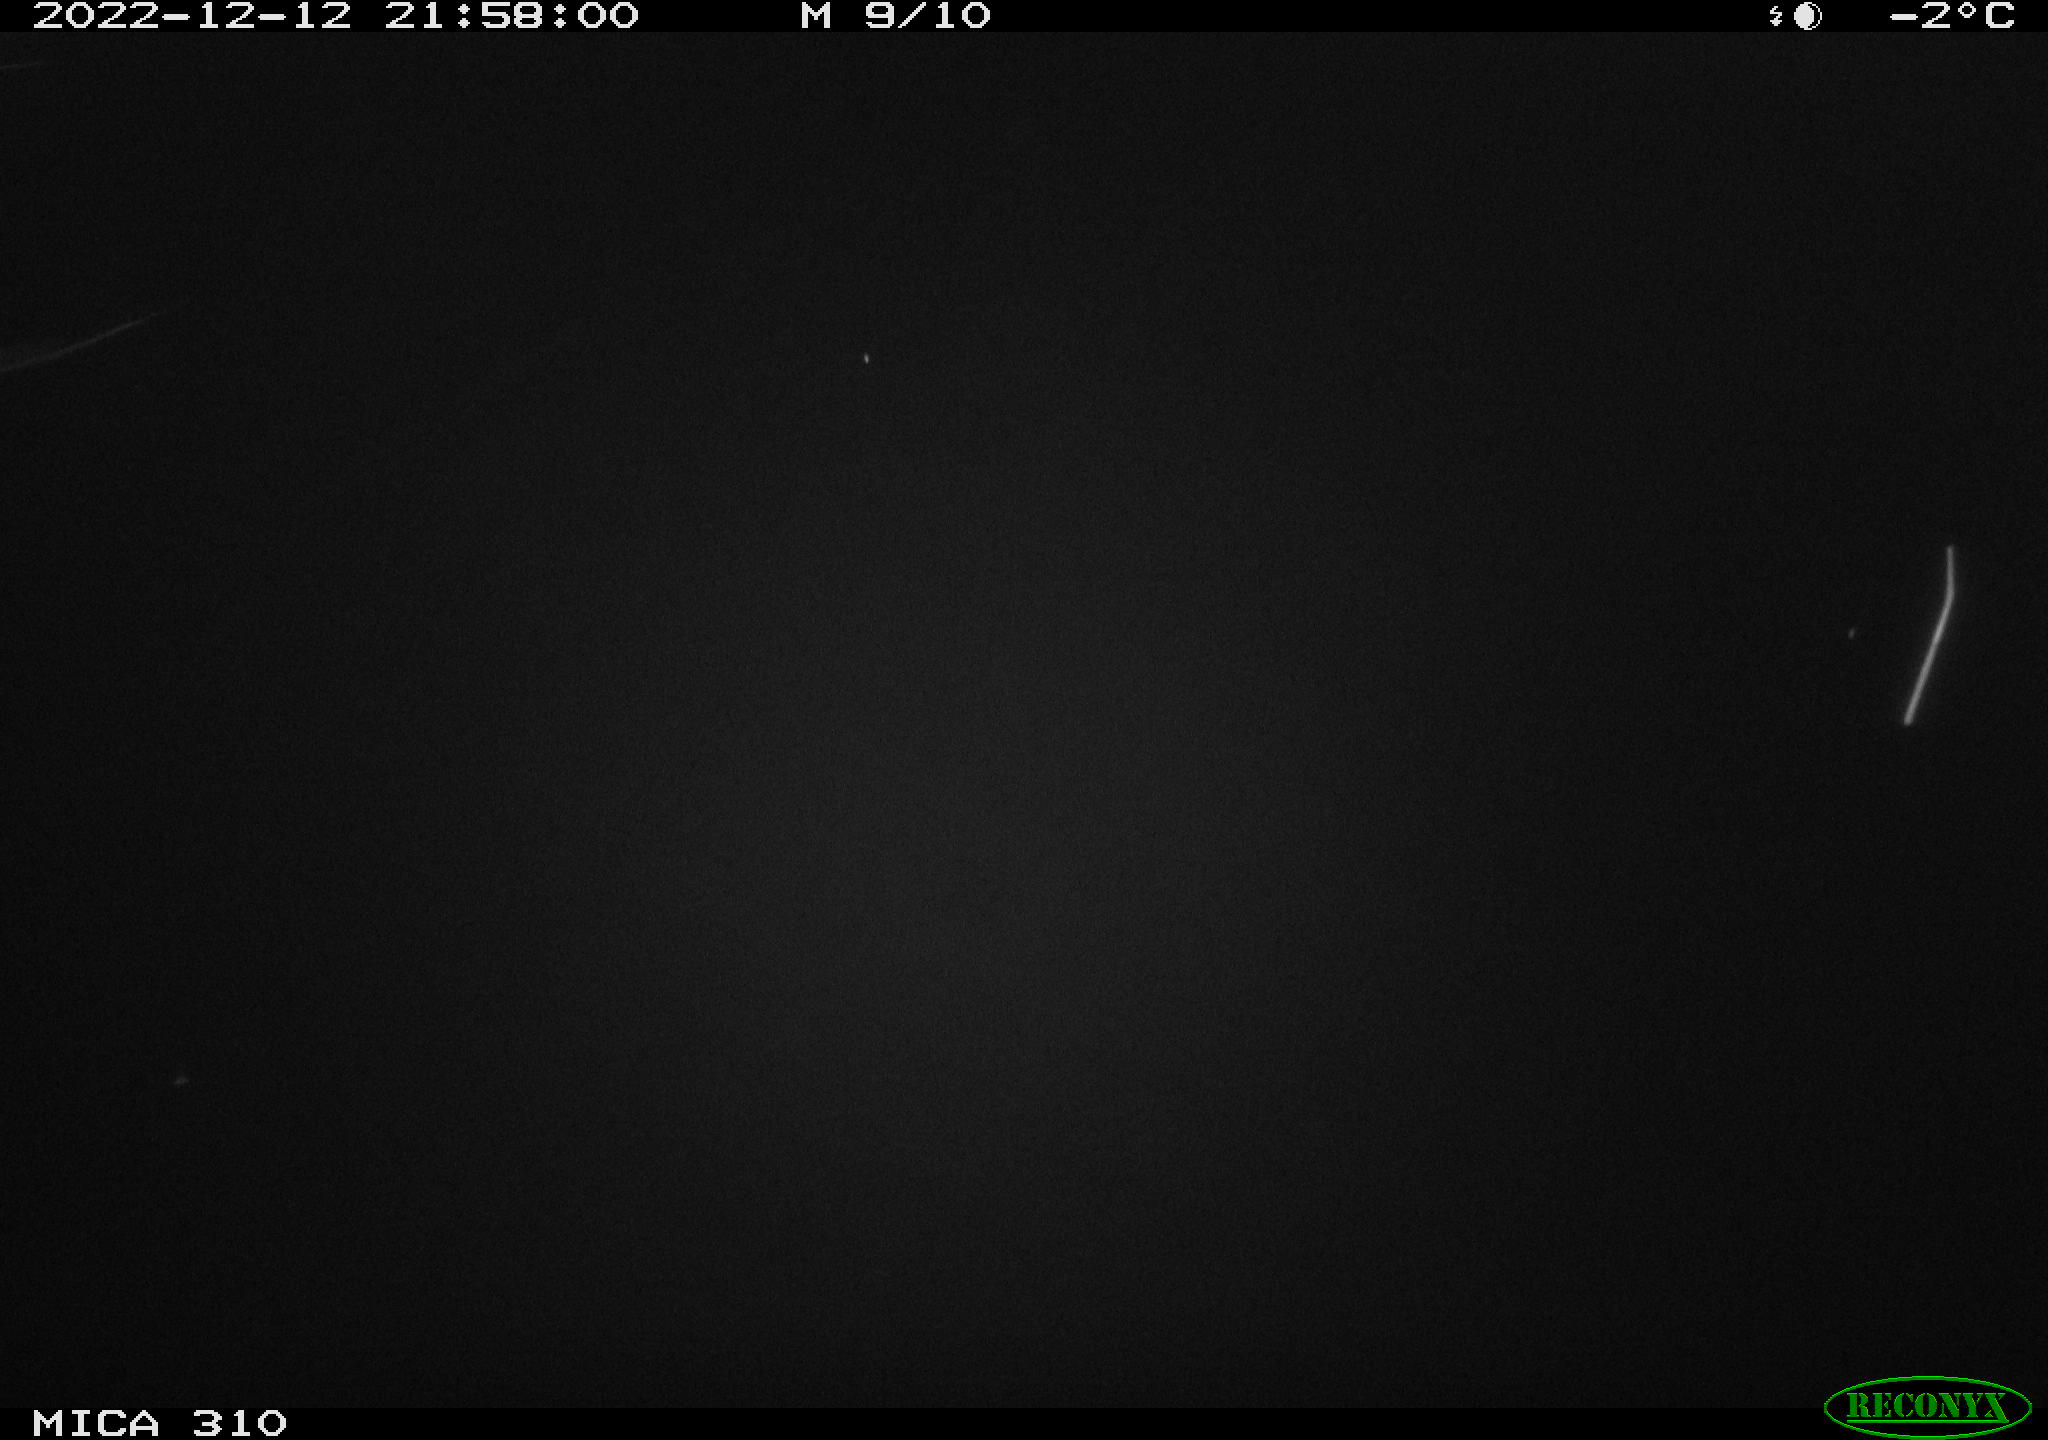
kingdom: Animalia
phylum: Chordata
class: Aves
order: Anseriformes
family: Anatidae
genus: Anas
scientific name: Anas
